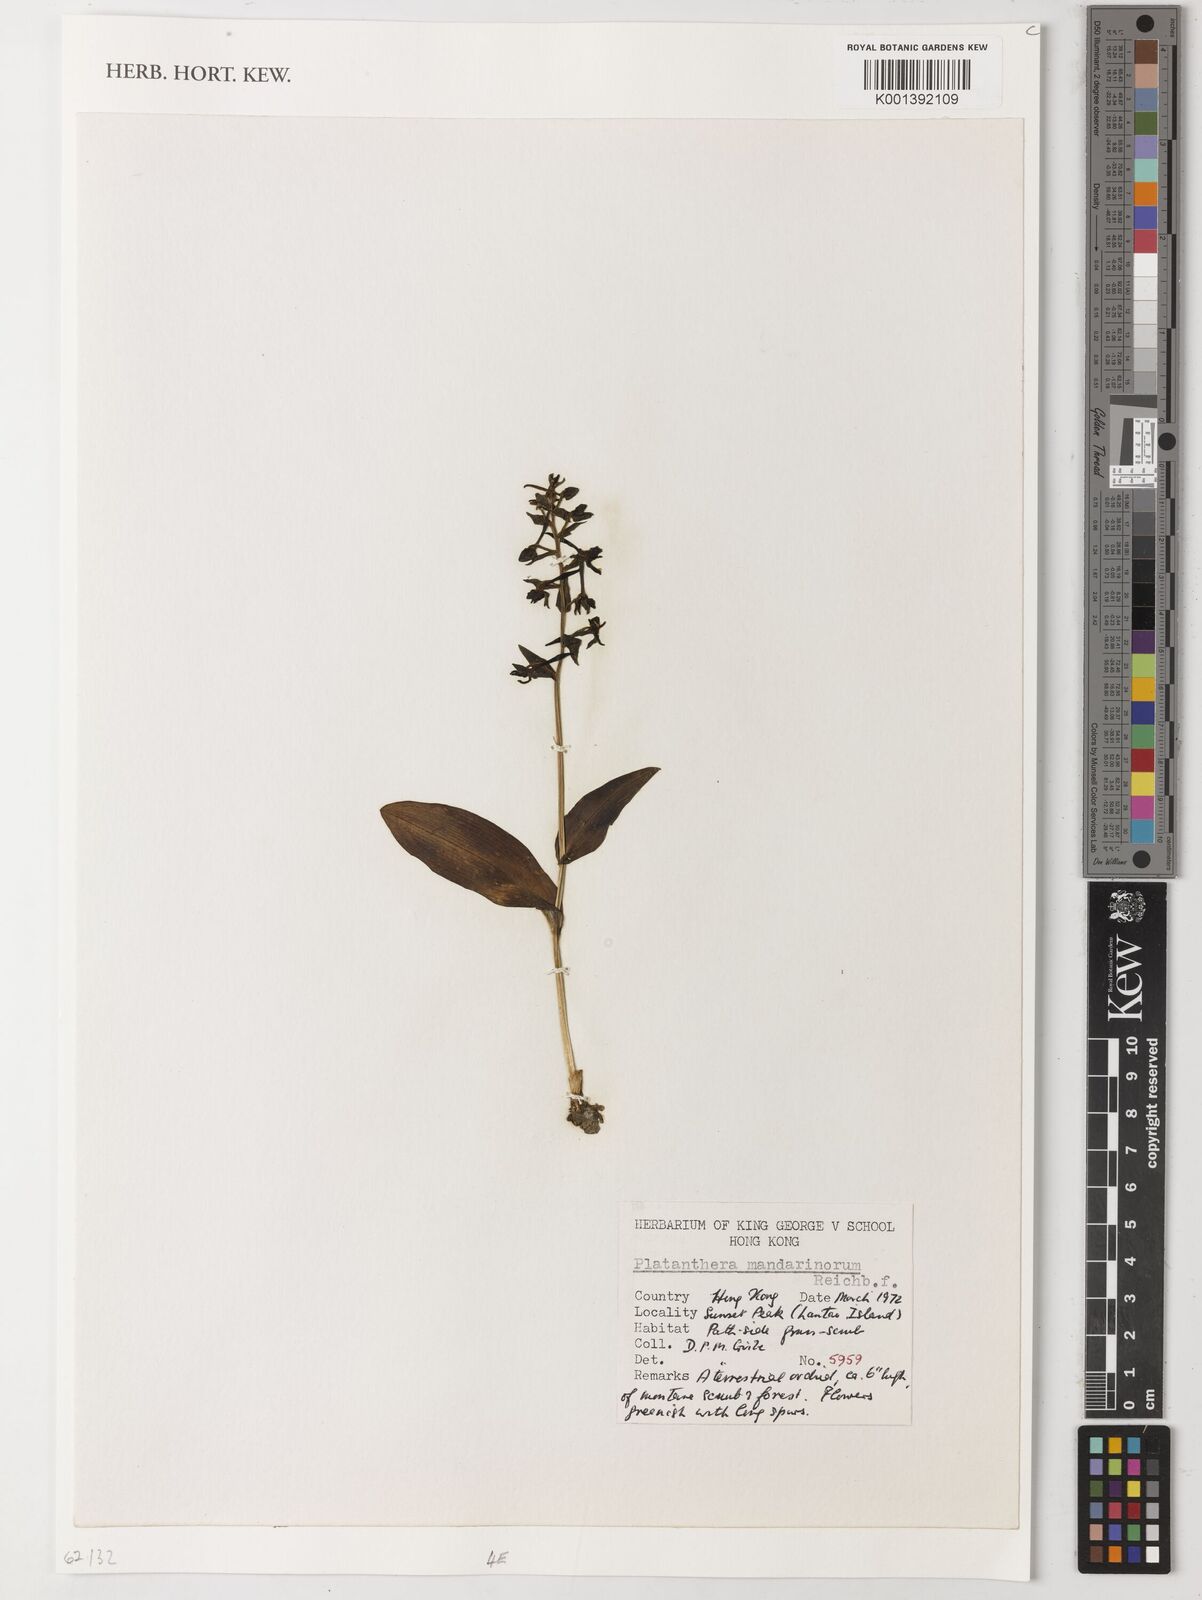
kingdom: Plantae
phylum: Tracheophyta
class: Liliopsida
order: Asparagales
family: Orchidaceae
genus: Platanthera
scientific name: Platanthera mandarinorum
